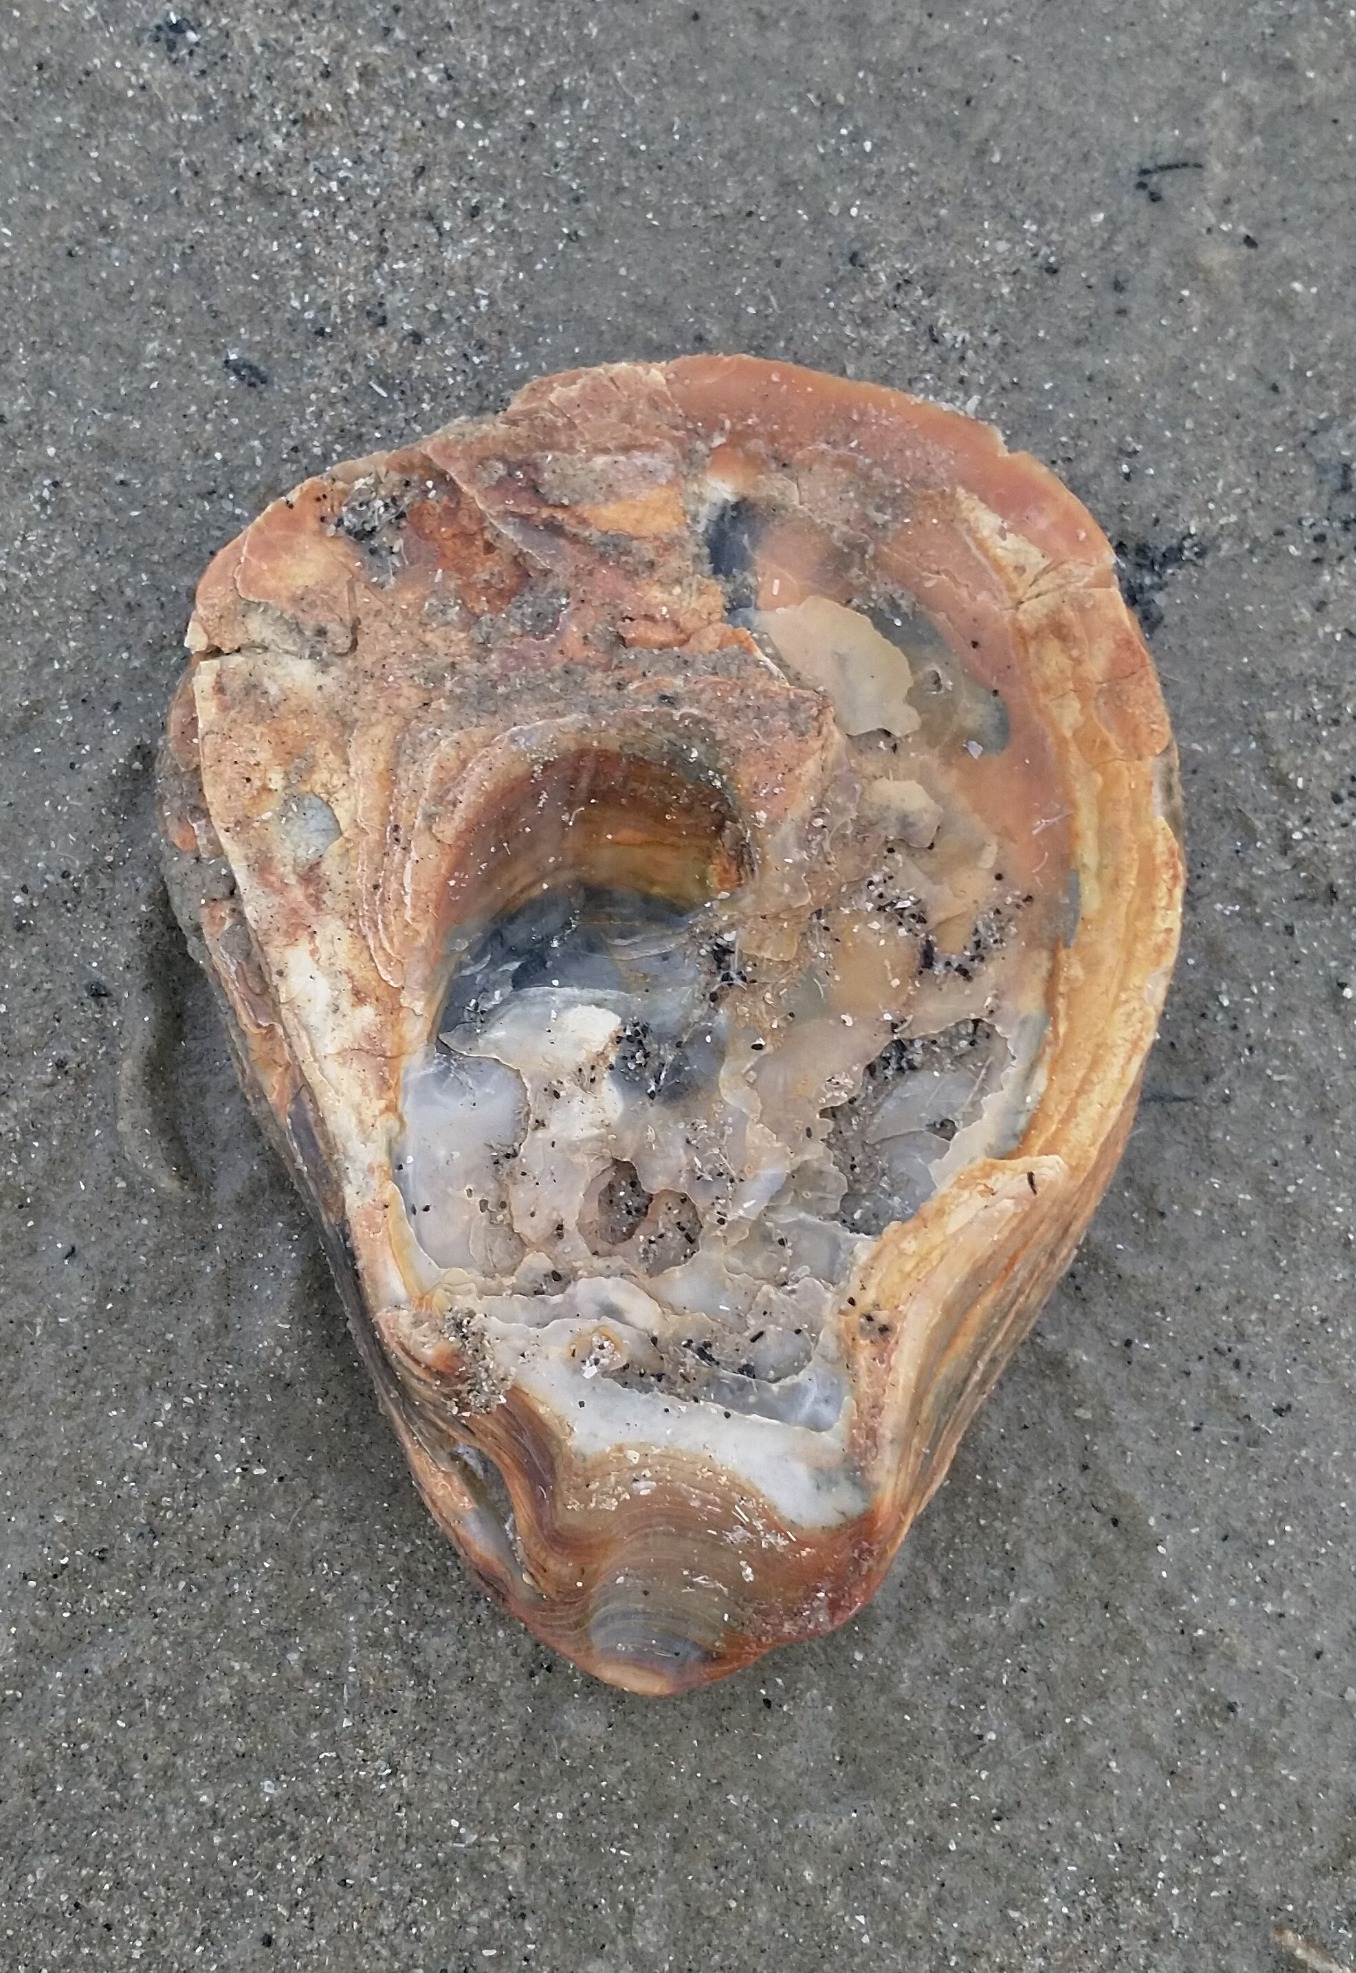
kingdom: Animalia
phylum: Mollusca
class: Bivalvia
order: Ostreida
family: Ostreidae
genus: Ostrea
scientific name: Ostrea edulis
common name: Østers
